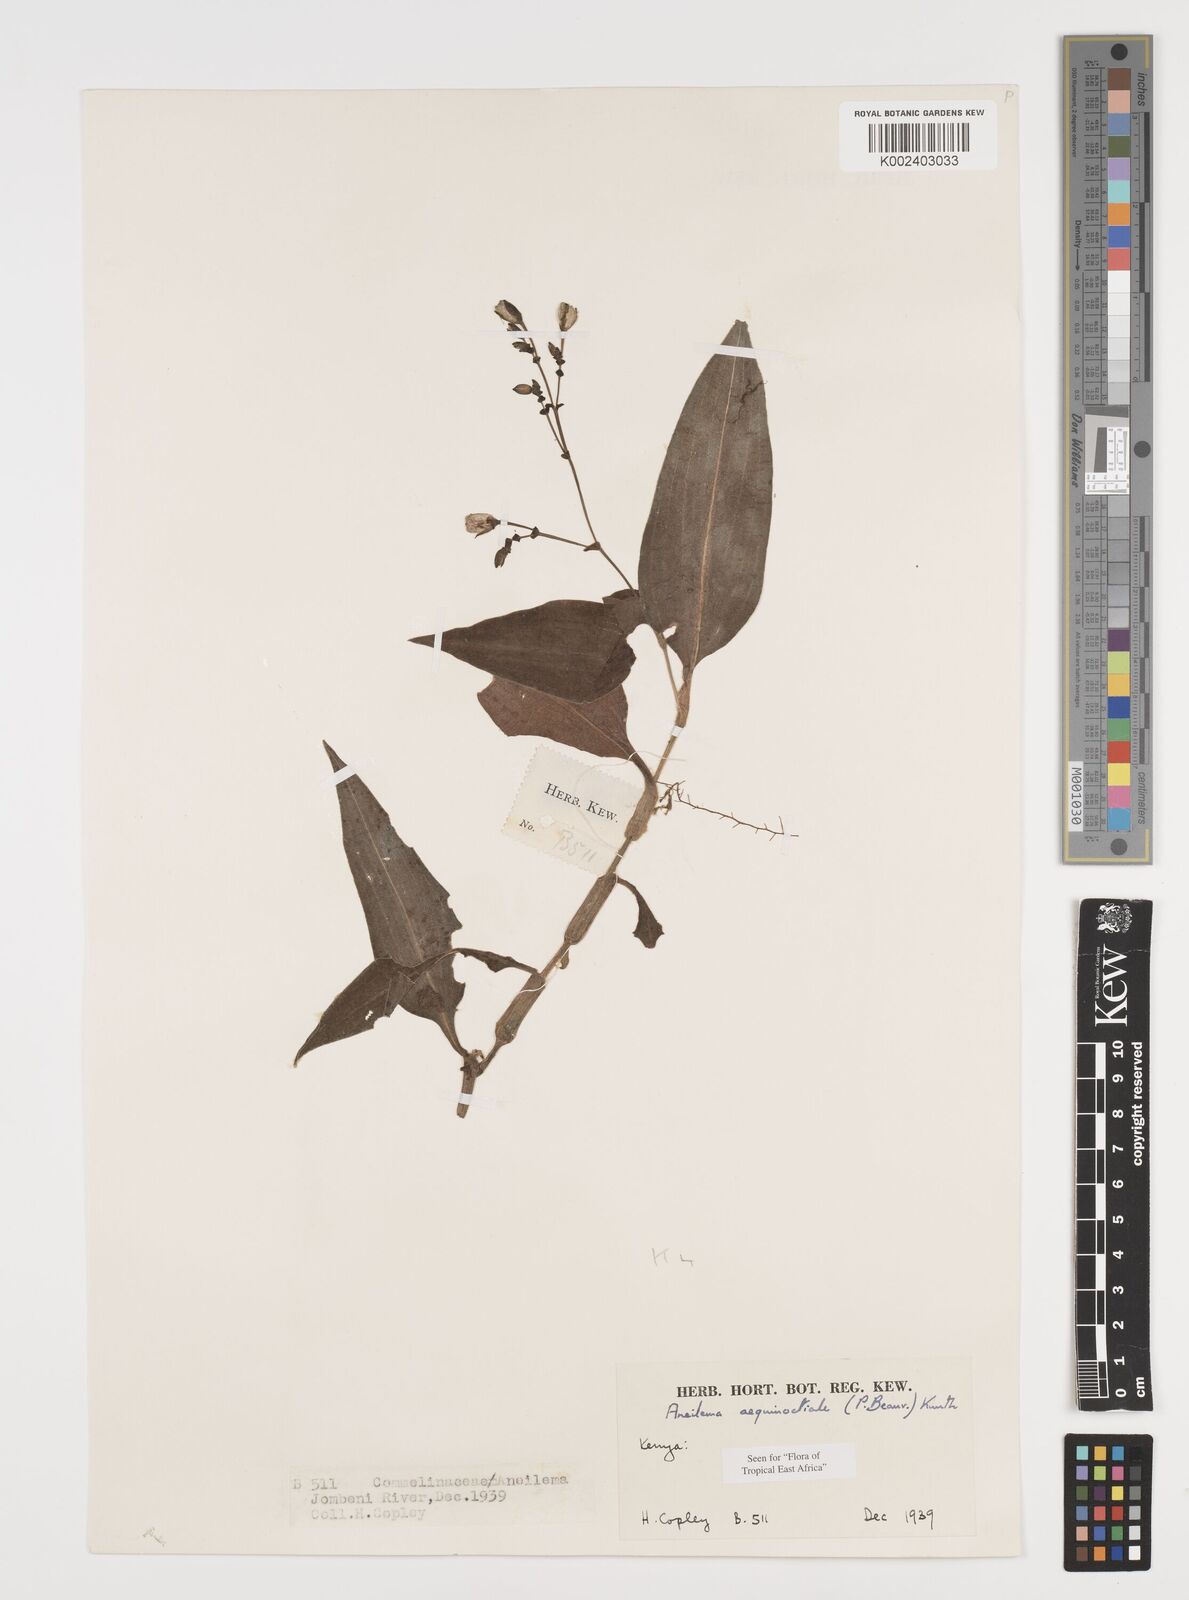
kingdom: Plantae
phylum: Tracheophyta
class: Liliopsida
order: Commelinales
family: Commelinaceae
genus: Aneilema
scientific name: Aneilema aequinoctiale
